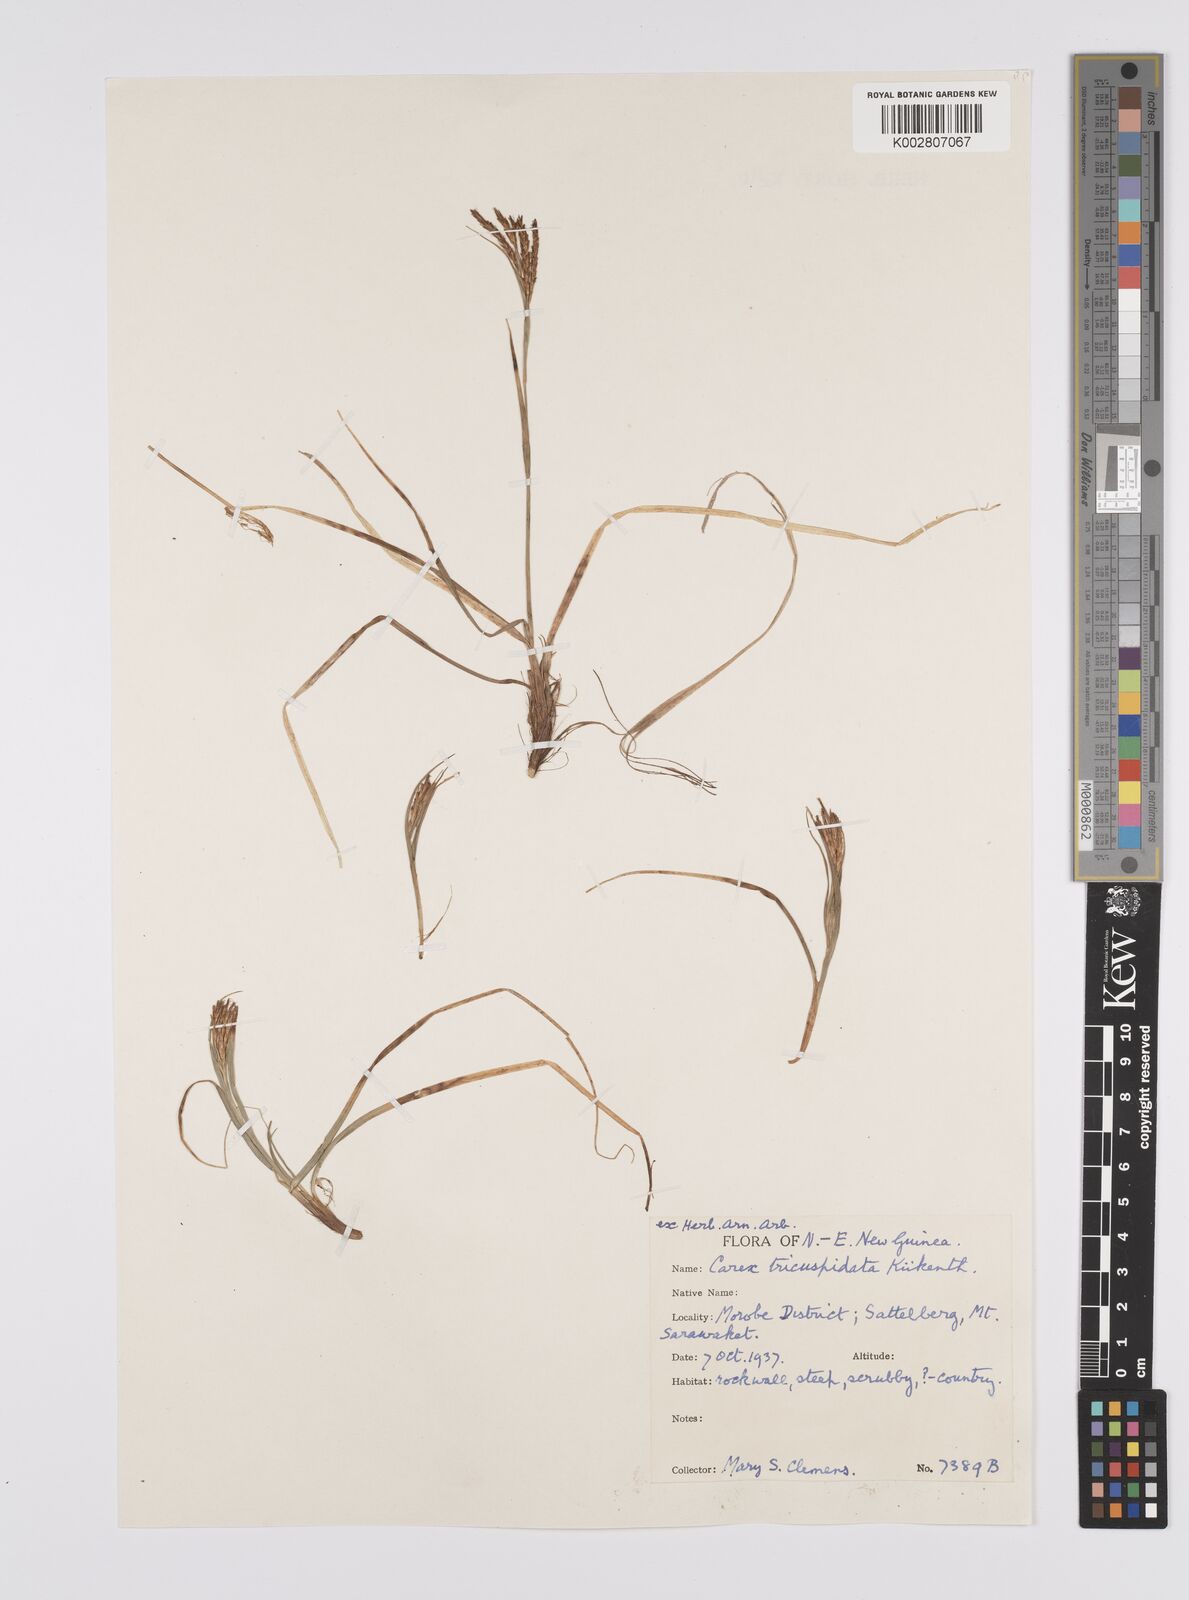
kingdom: Plantae
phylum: Tracheophyta
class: Liliopsida
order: Poales
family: Cyperaceae
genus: Carex
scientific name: Carex brachyanthera
